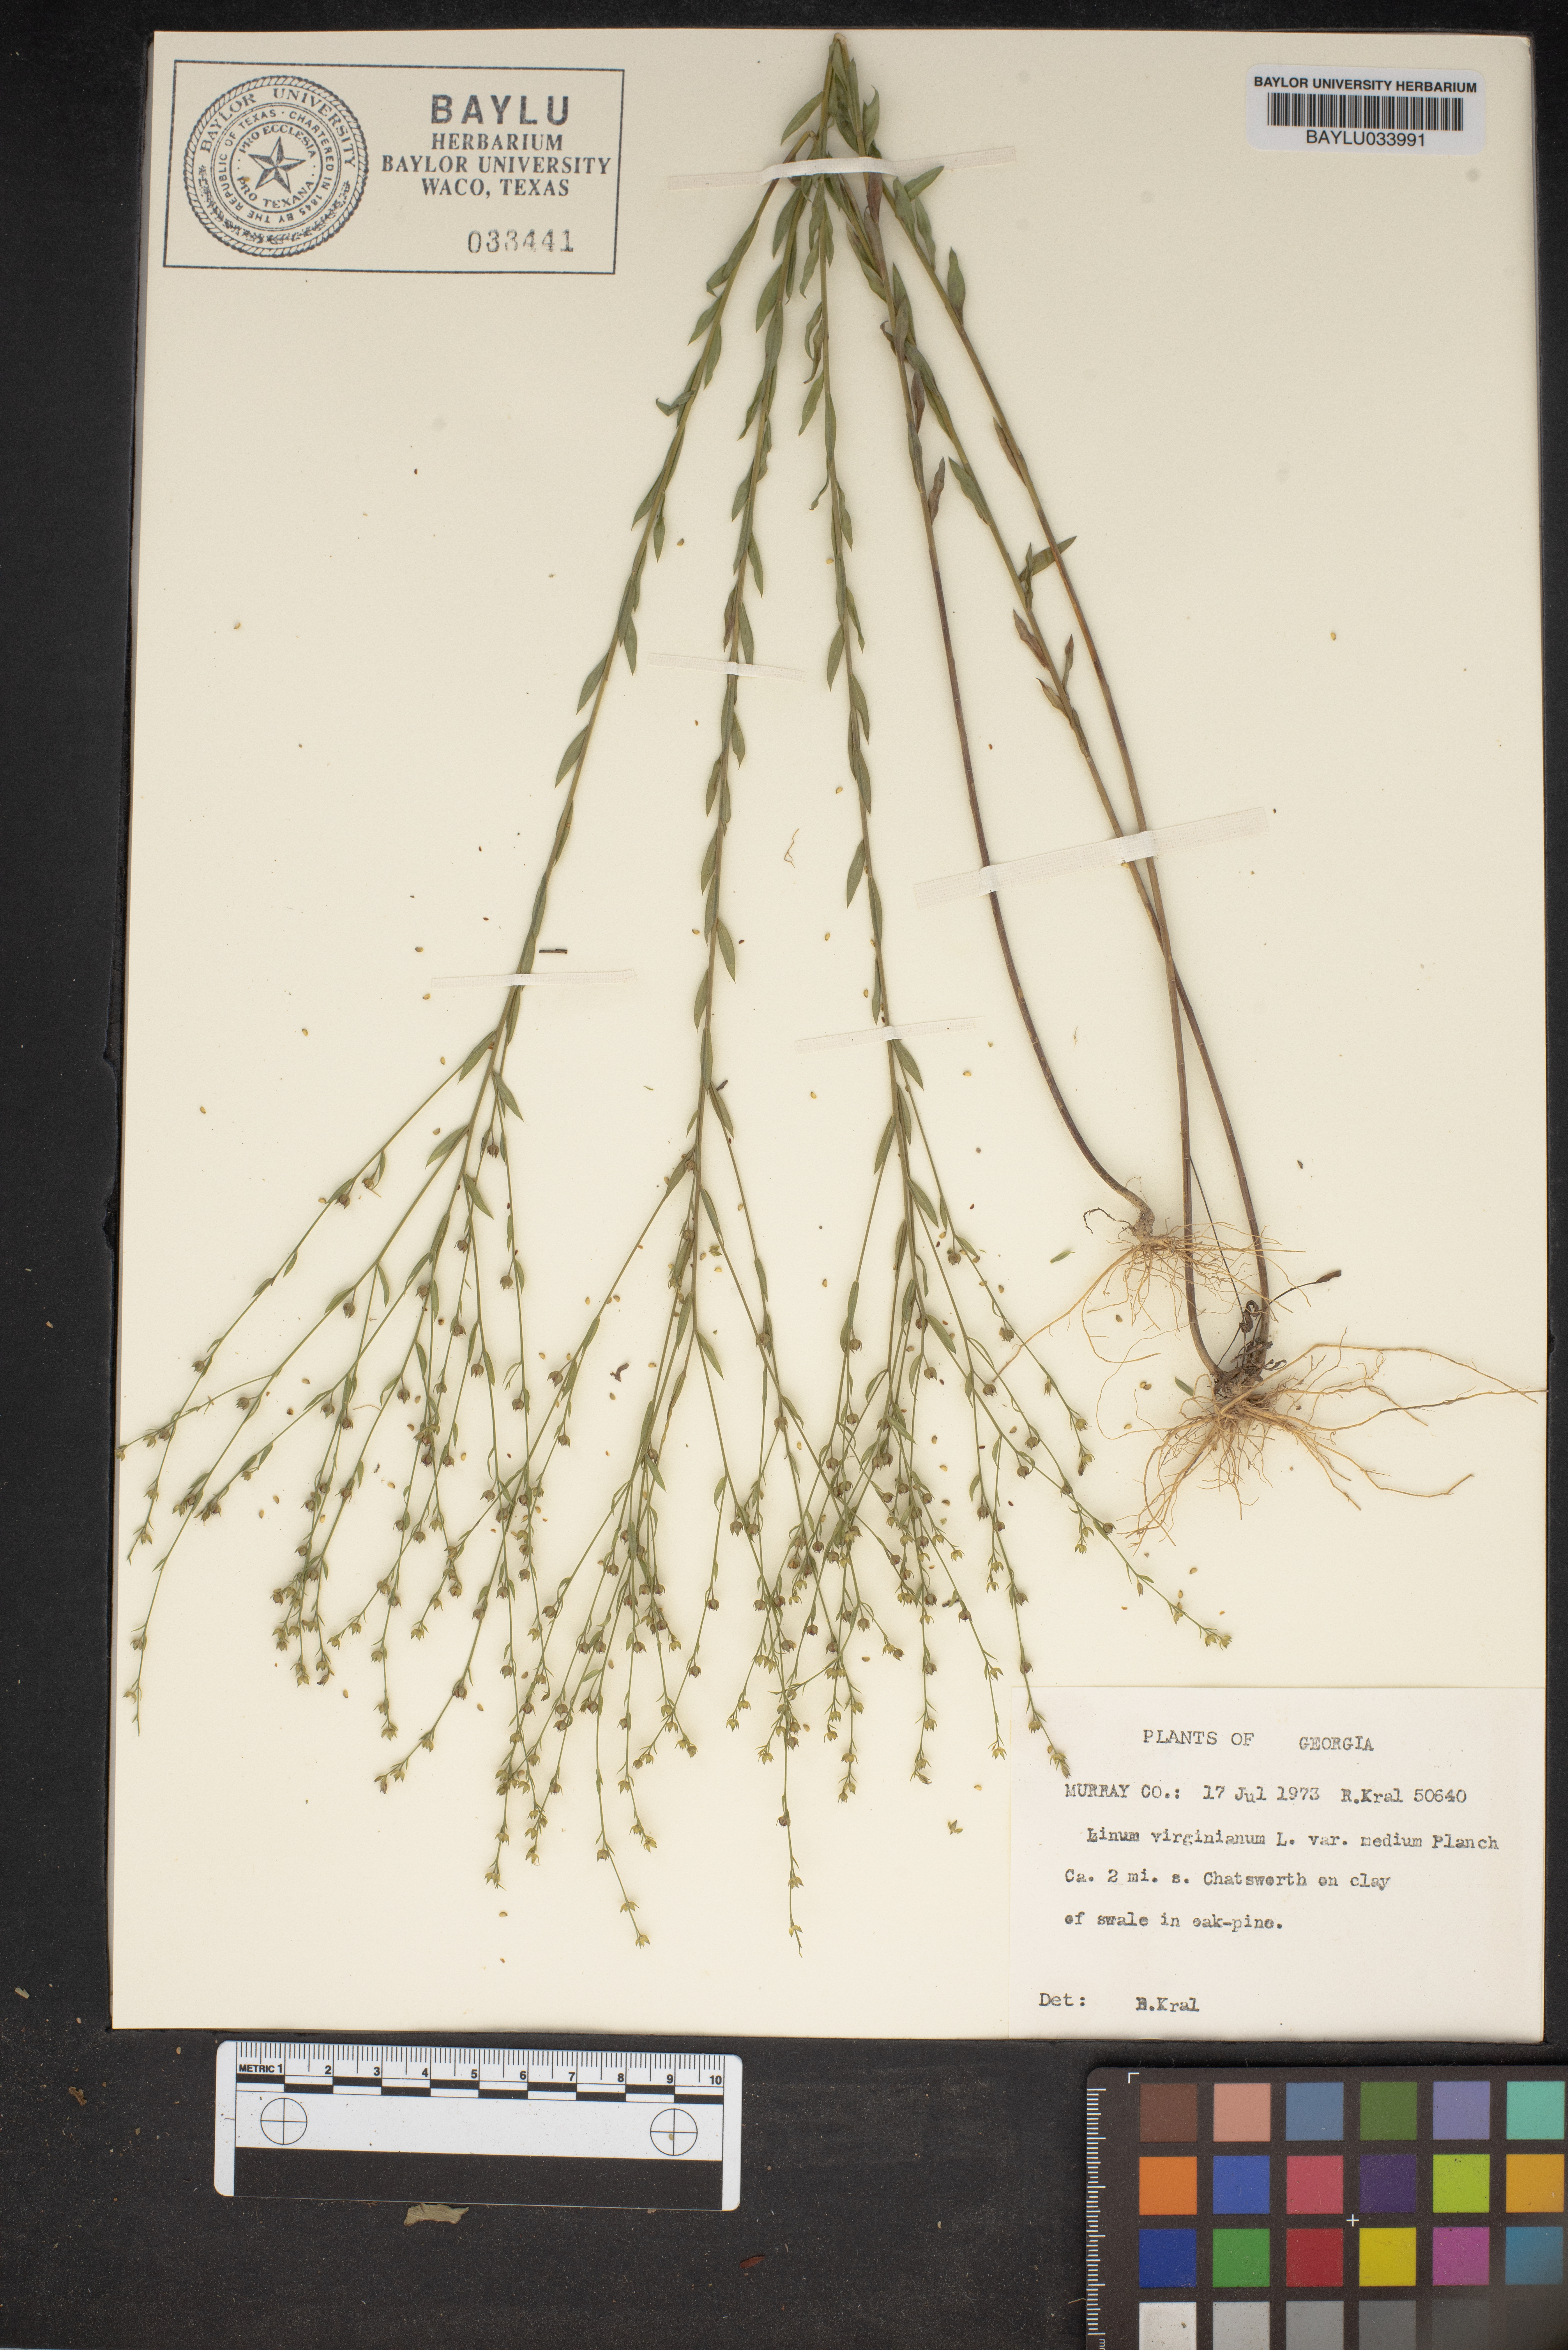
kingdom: Plantae
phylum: Tracheophyta
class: Magnoliopsida
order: Malpighiales
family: Linaceae
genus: Linum
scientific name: Linum medium
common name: Stiff yellow flax
